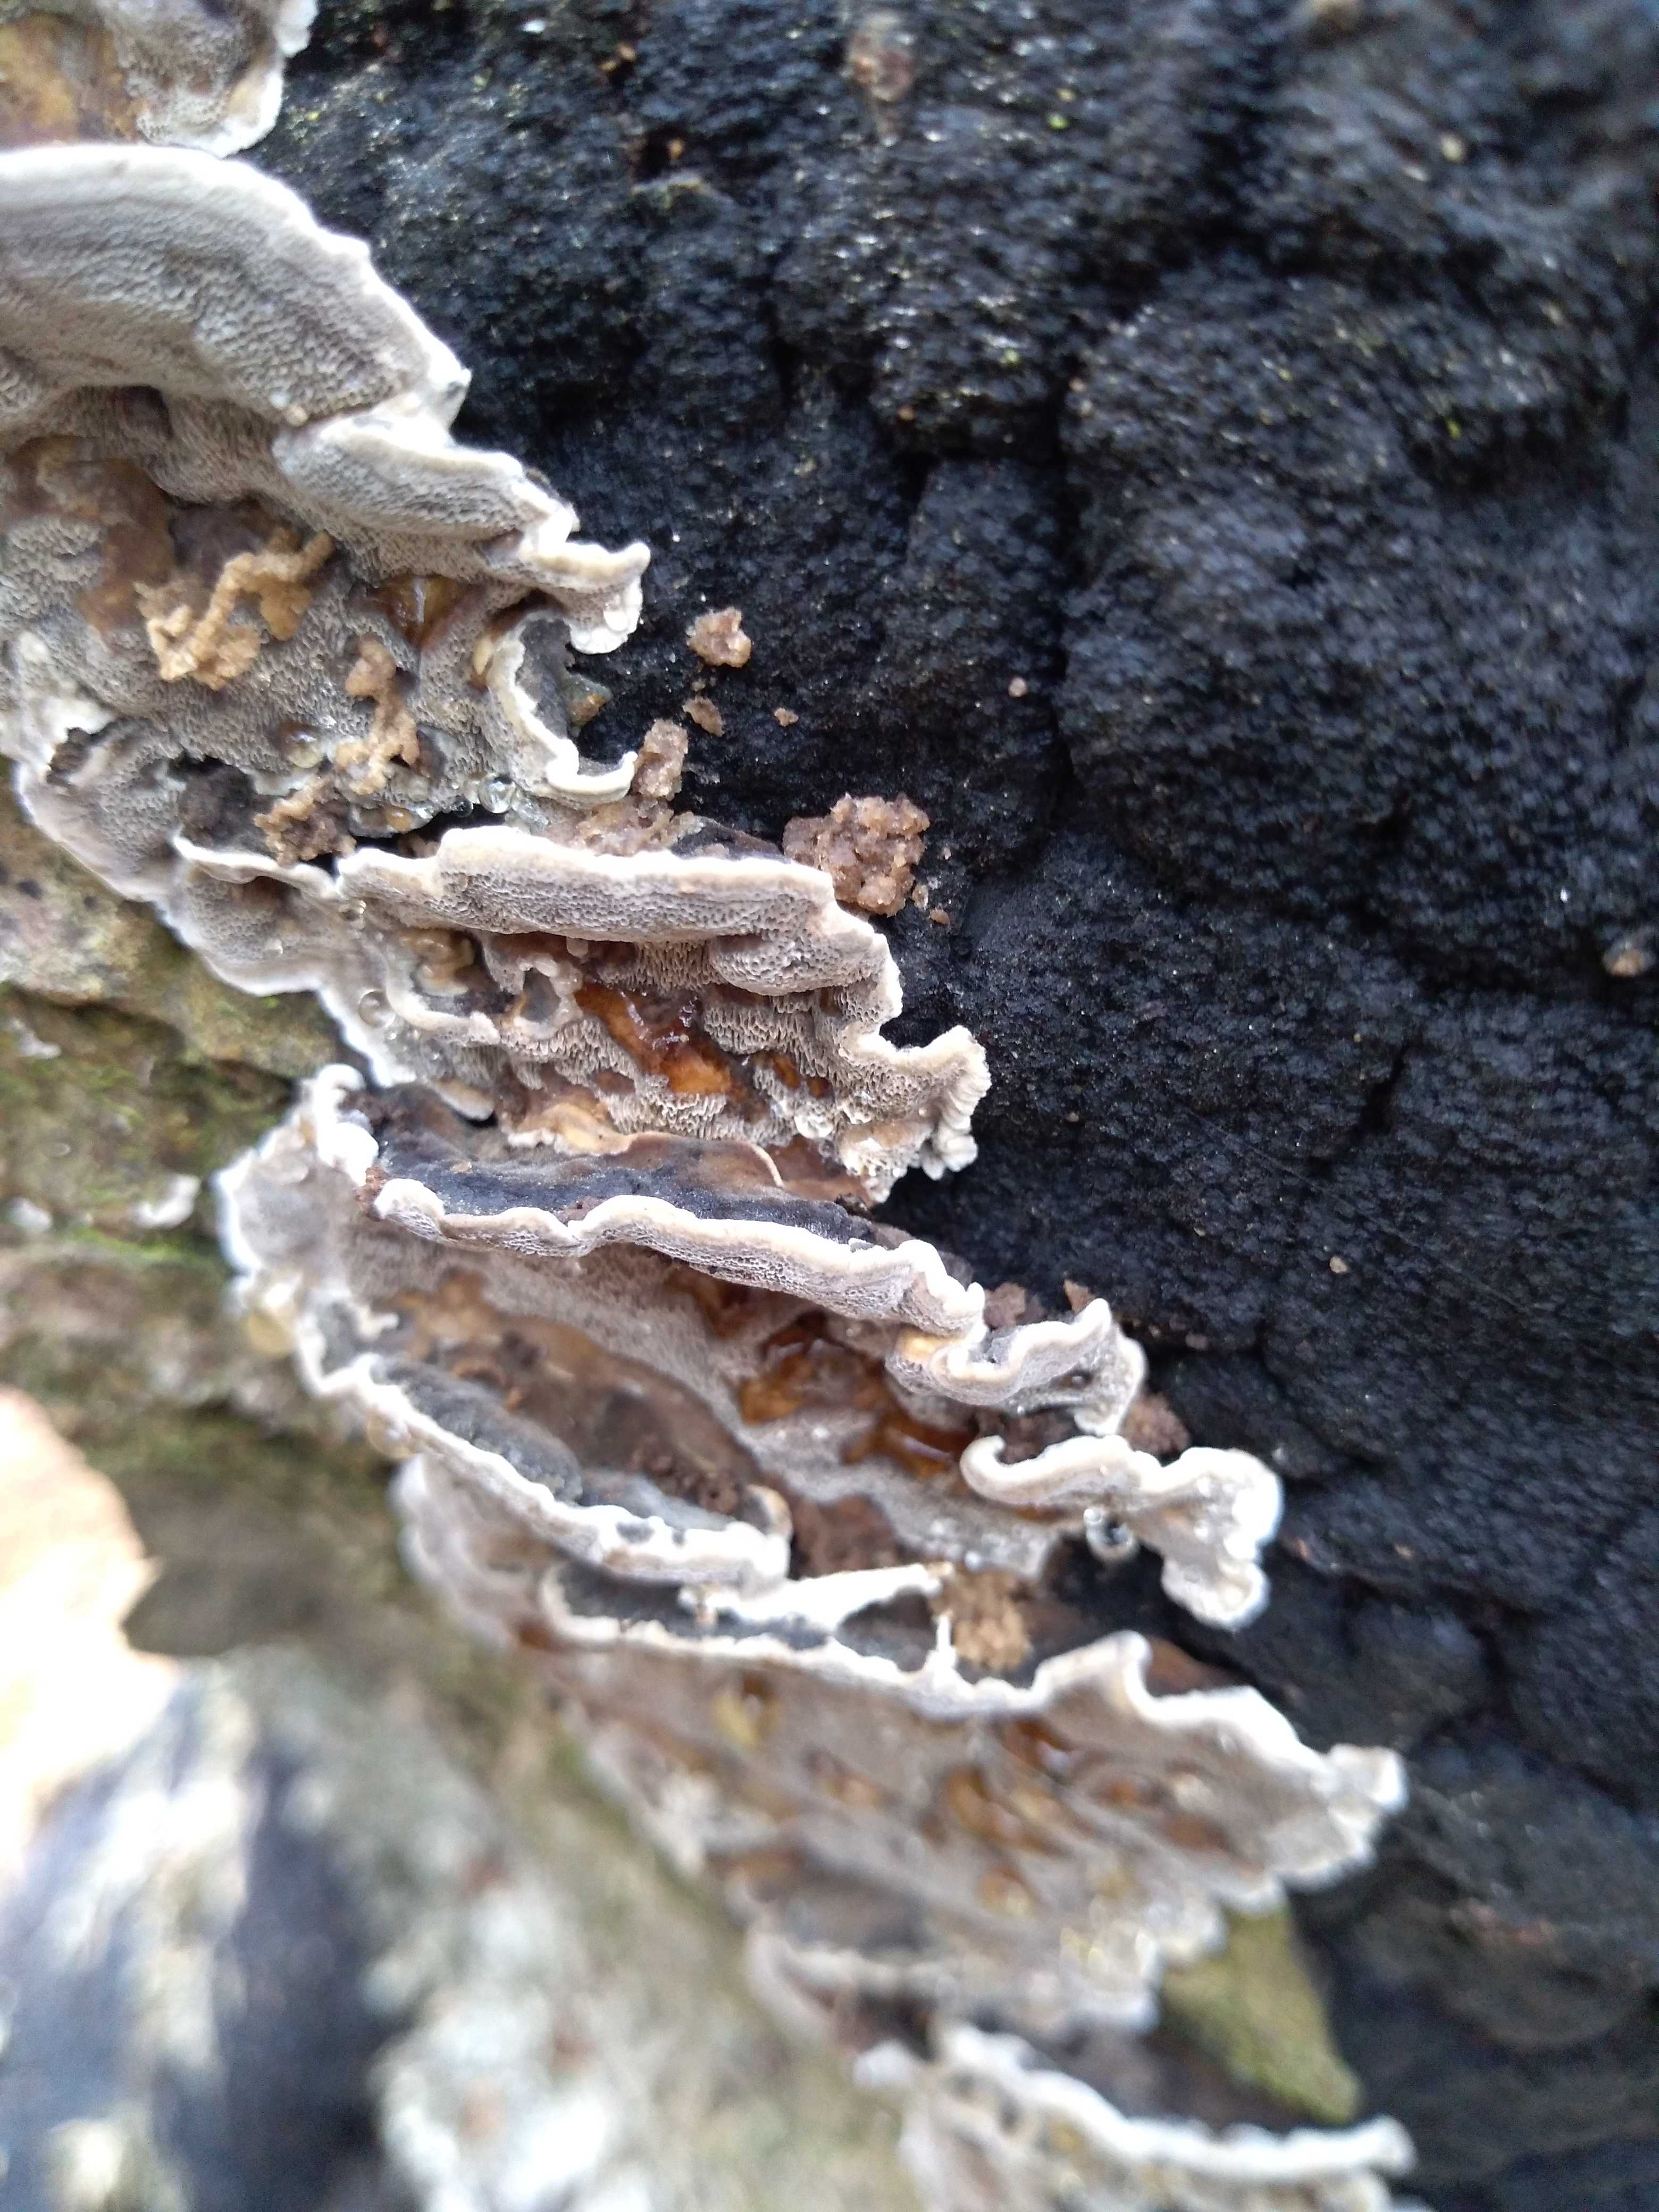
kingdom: Fungi
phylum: Basidiomycota
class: Agaricomycetes
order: Polyporales
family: Phanerochaetaceae
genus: Bjerkandera
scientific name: Bjerkandera adusta
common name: sveden sodporesvamp
